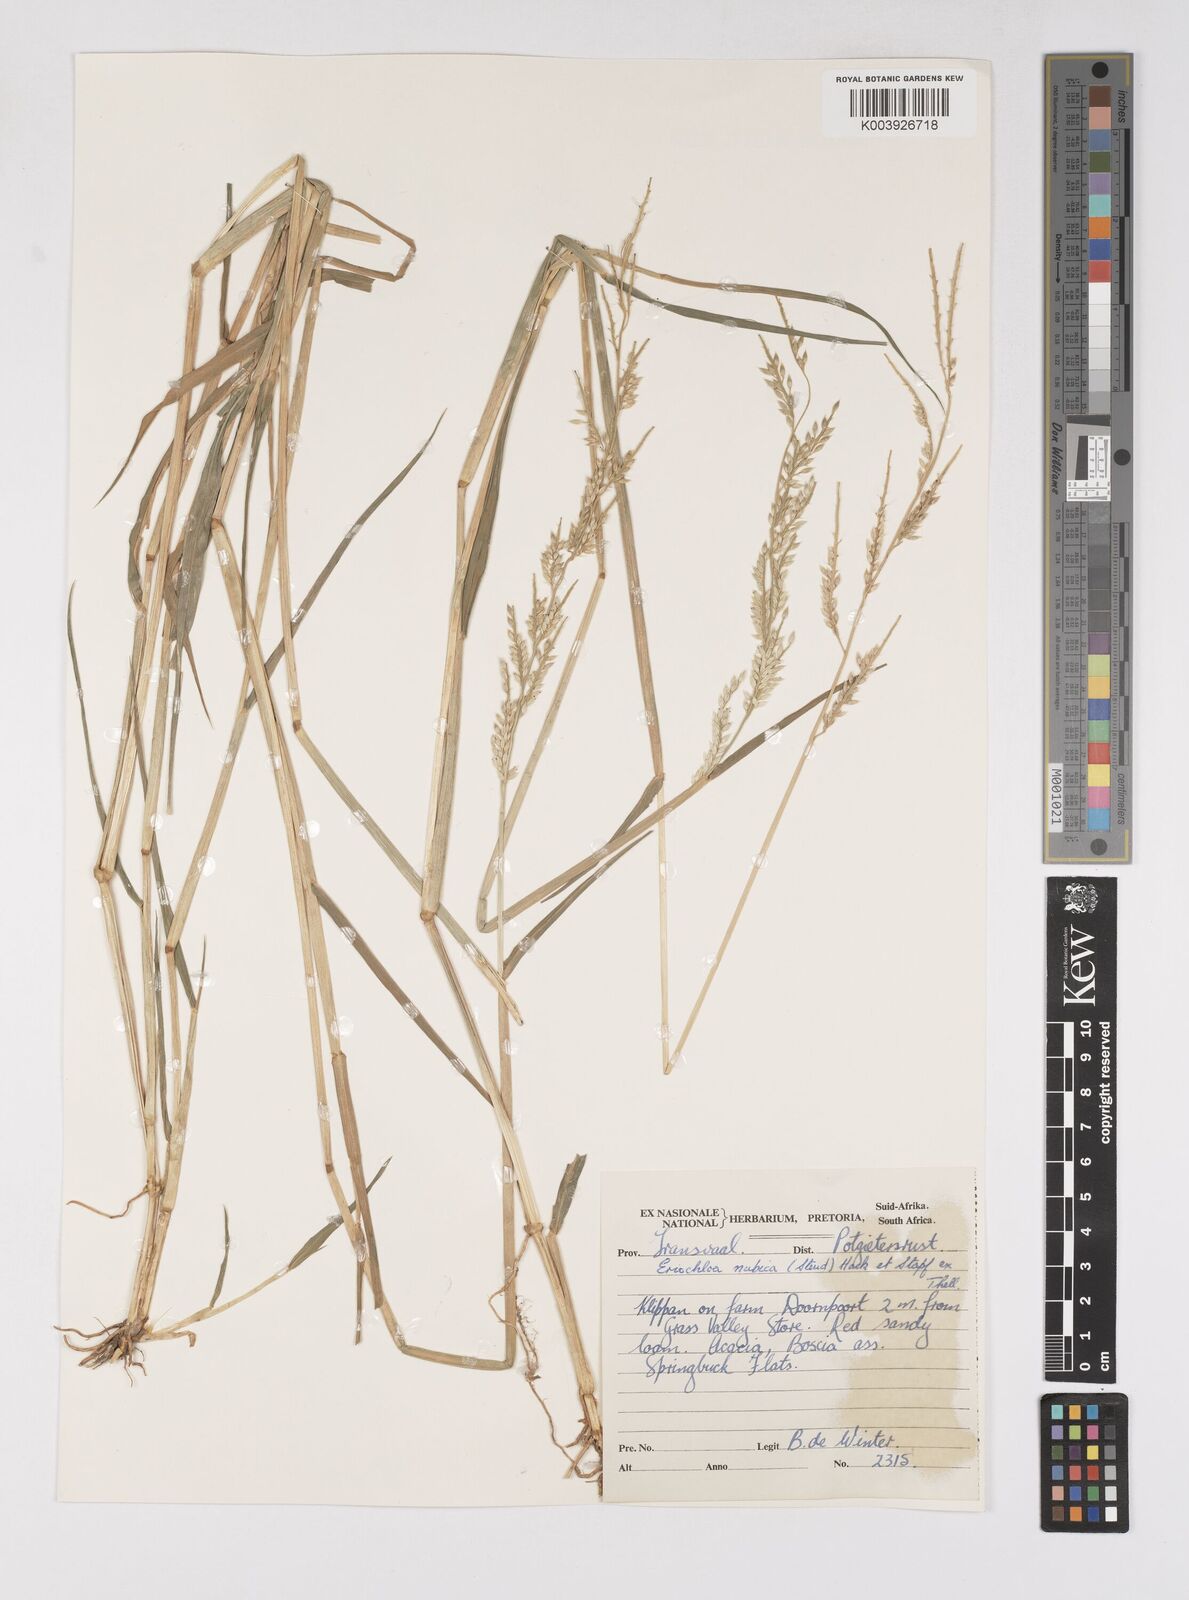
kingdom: Plantae
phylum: Tracheophyta
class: Liliopsida
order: Poales
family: Poaceae
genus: Eriochloa
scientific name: Eriochloa barbatus
